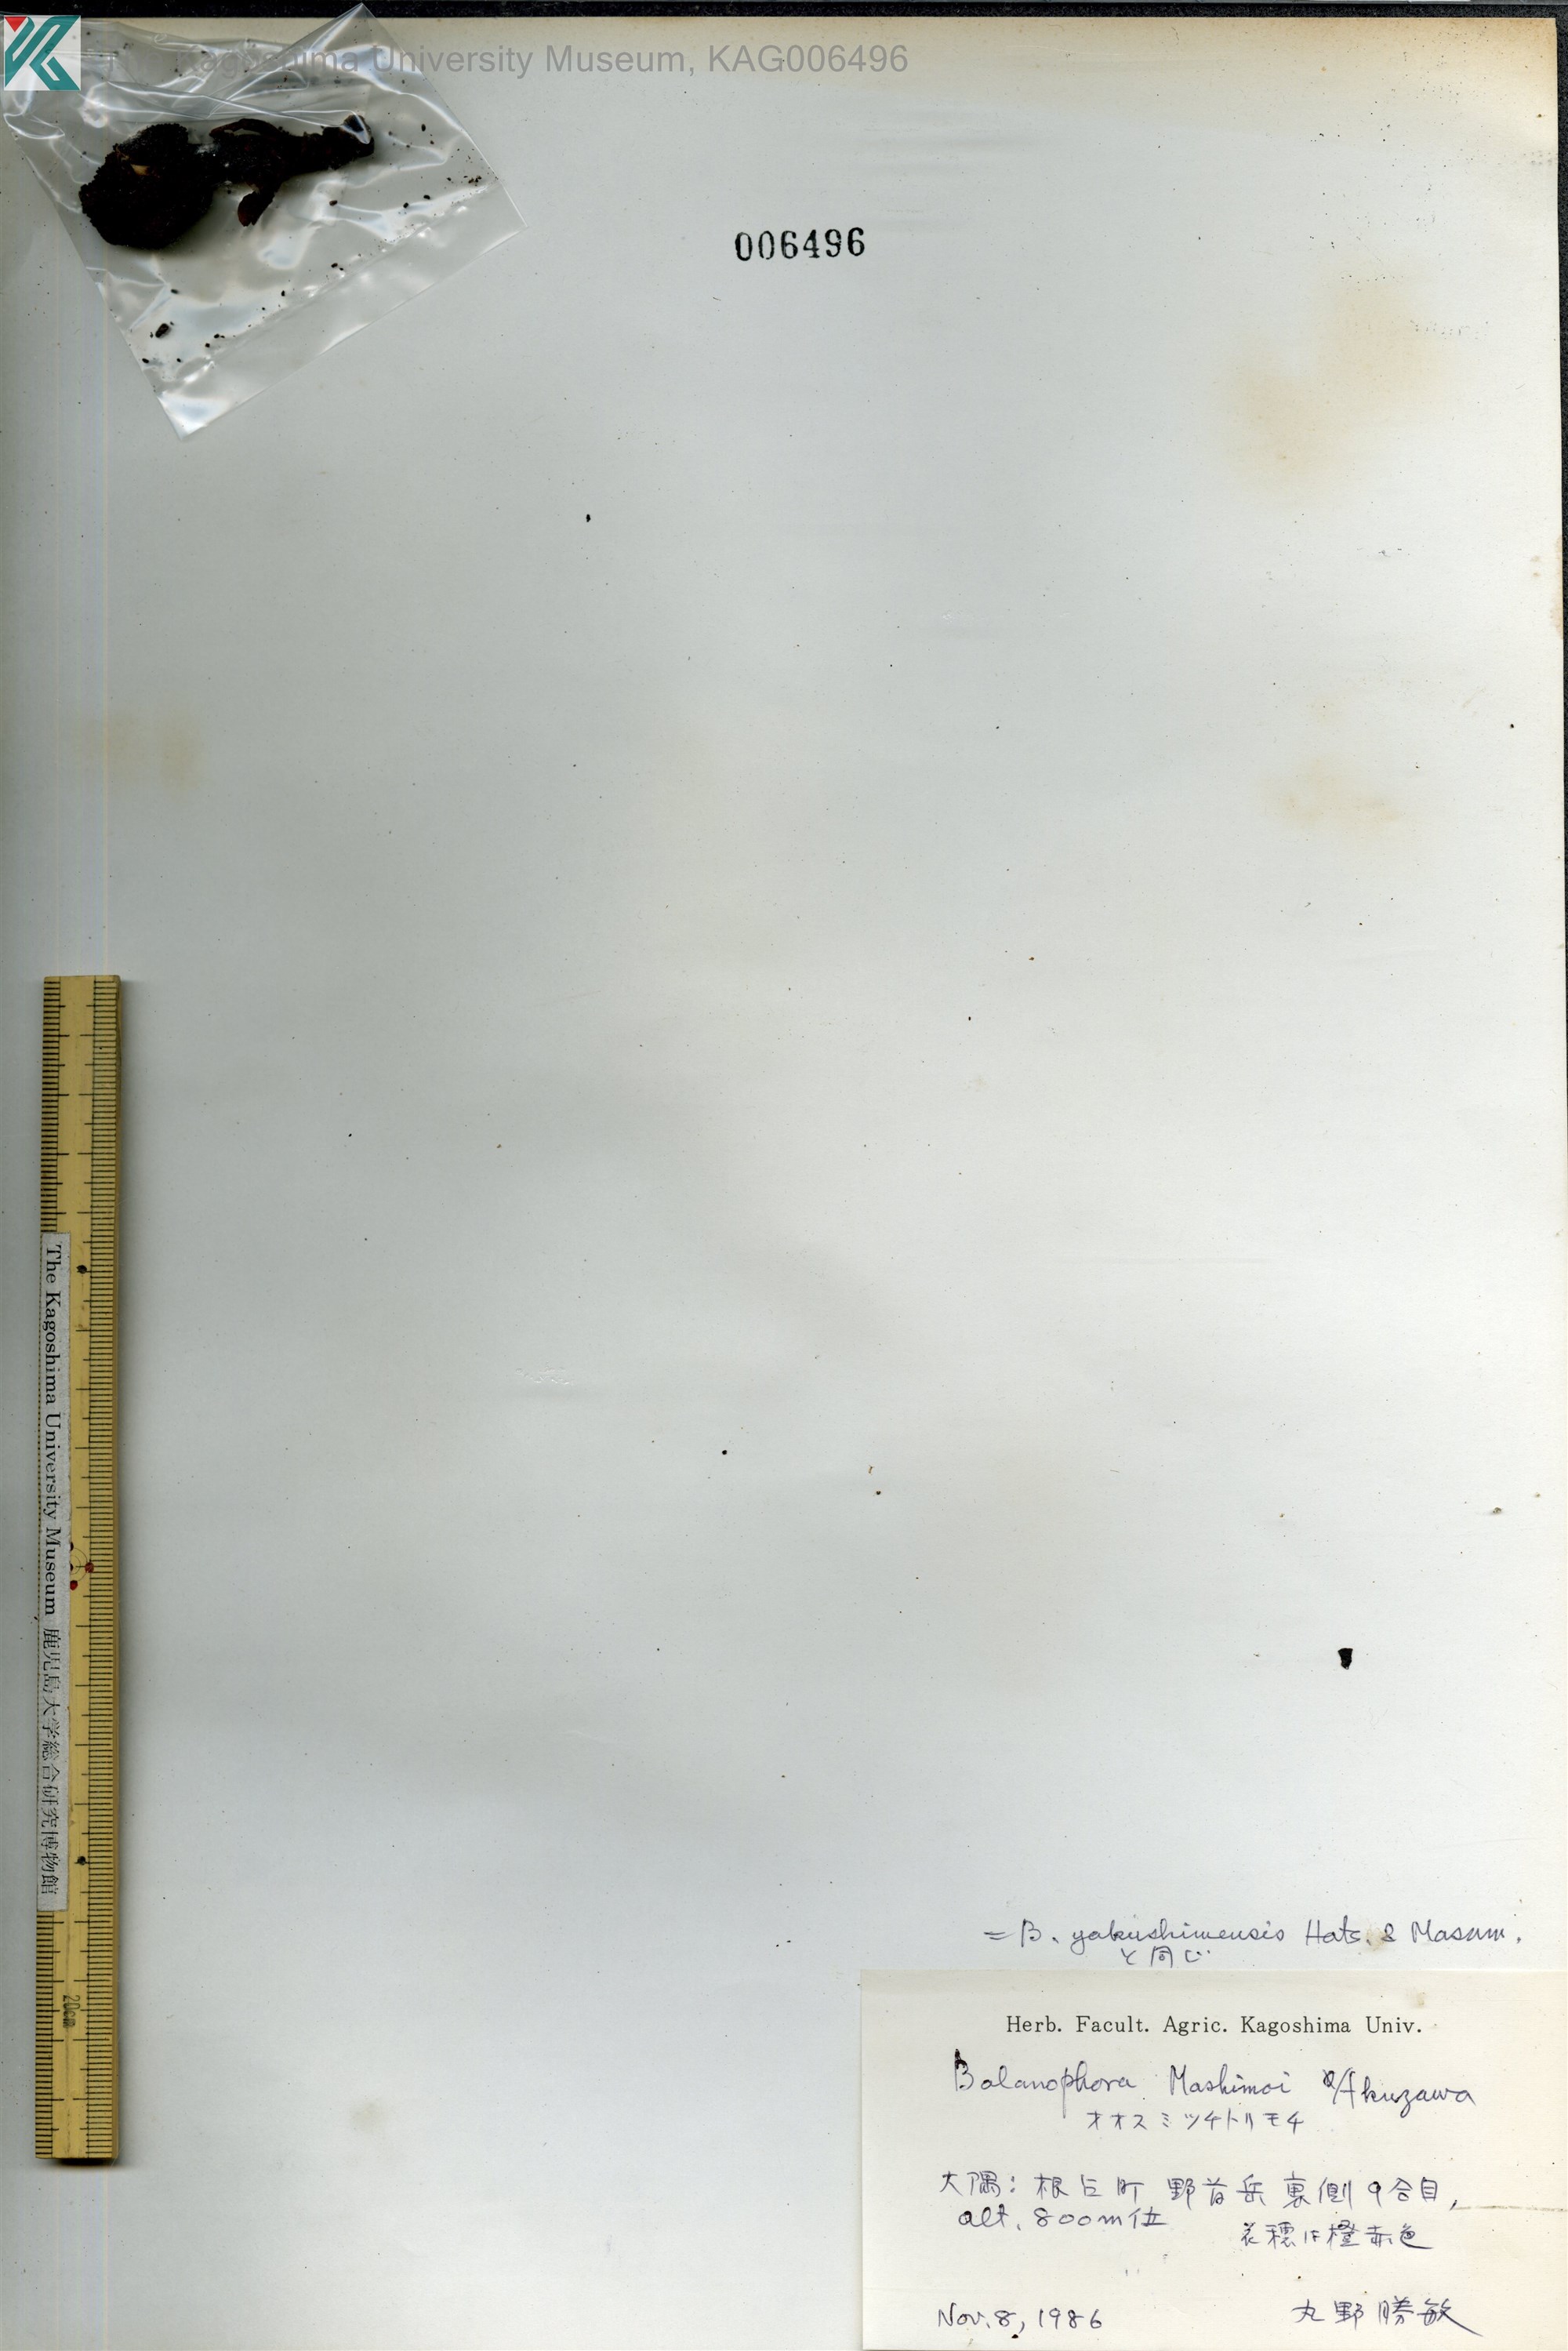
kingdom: Plantae
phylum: Tracheophyta
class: Magnoliopsida
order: Santalales
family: Balanophoraceae
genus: Balanophora
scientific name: Balanophora yakushimensis
